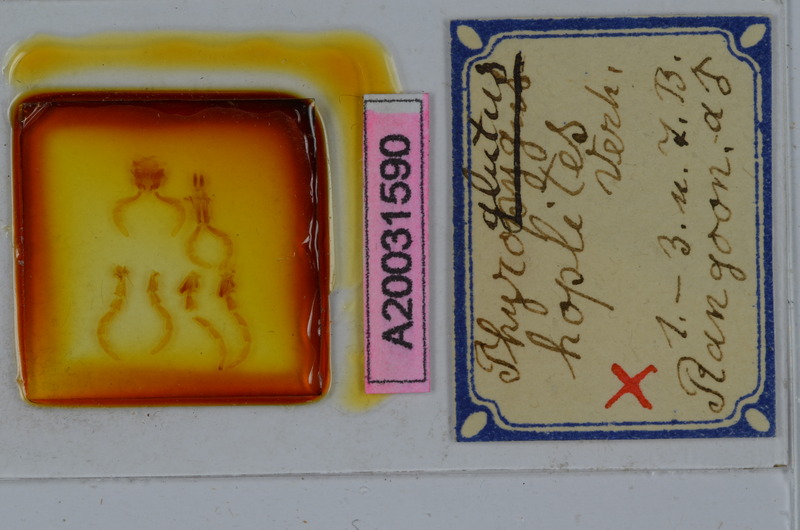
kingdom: Animalia
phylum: Arthropoda
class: Diplopoda
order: Spirostreptida
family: Harpagophoridae
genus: Gonoplectus
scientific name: Gonoplectus hoplites
